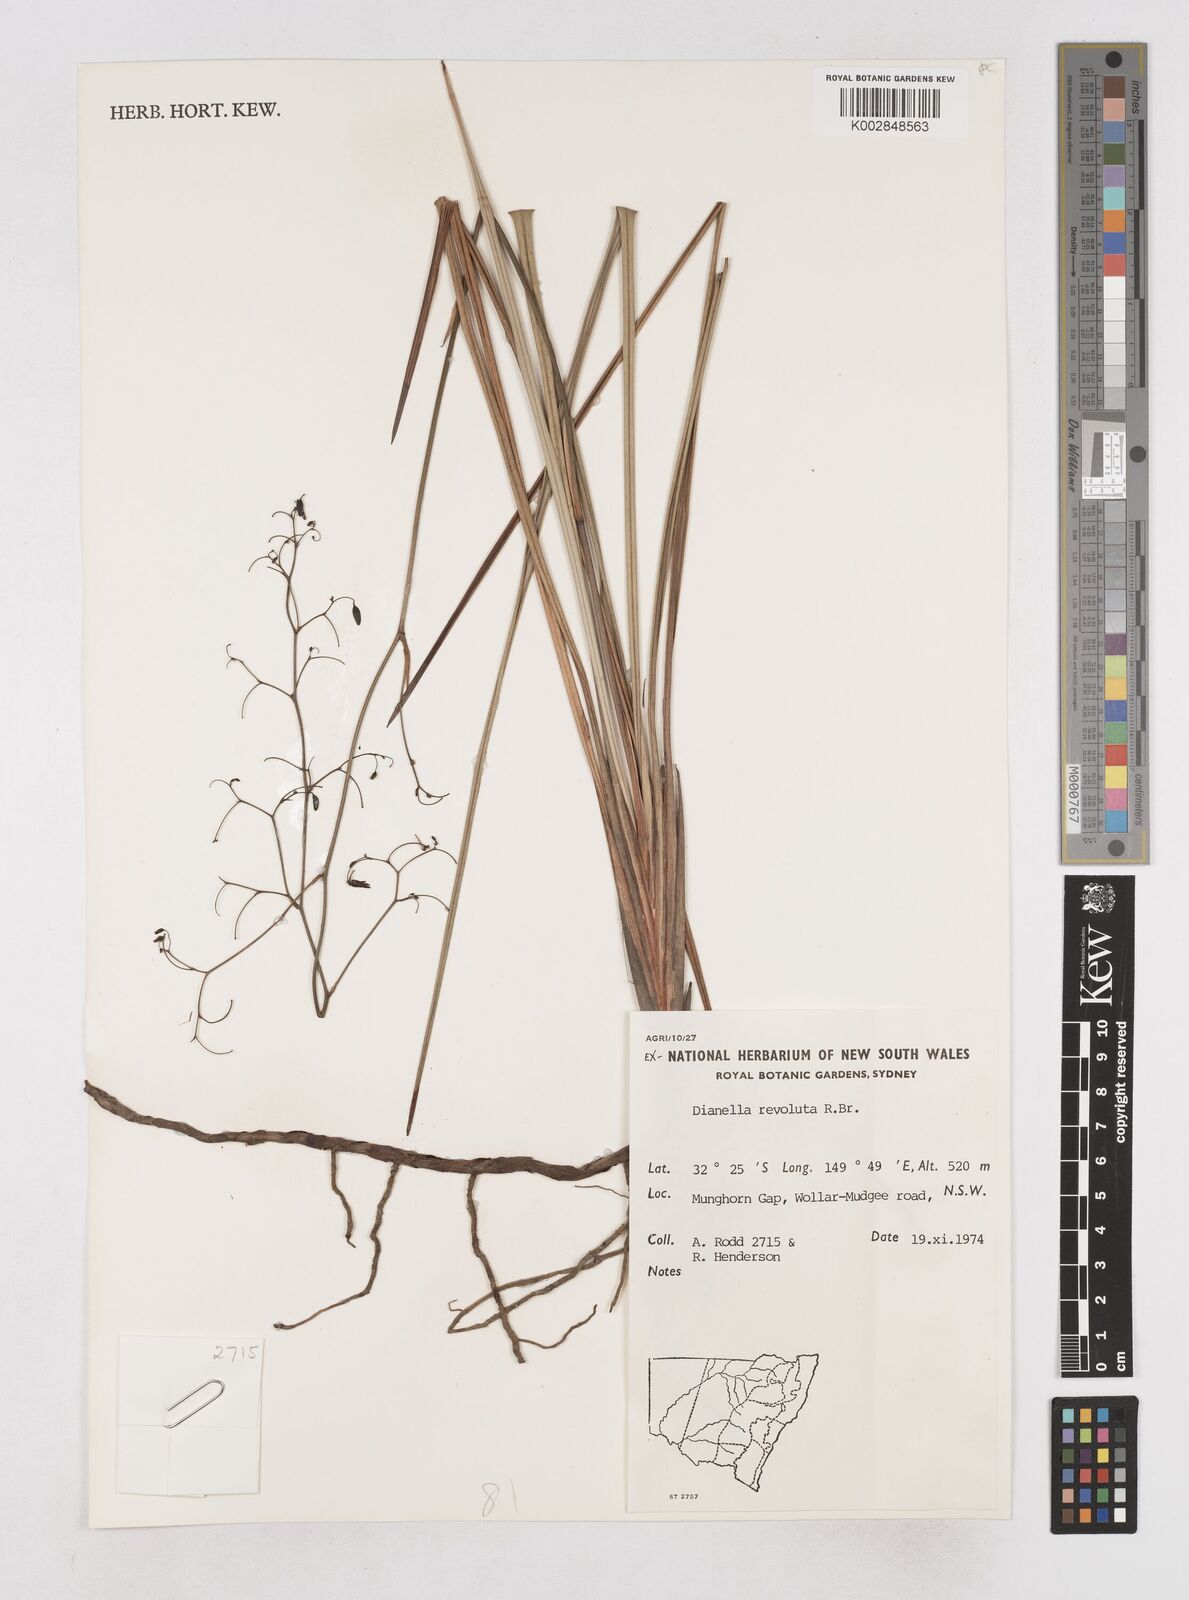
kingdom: Plantae
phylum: Tracheophyta
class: Liliopsida
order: Asparagales
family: Asphodelaceae
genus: Dianella
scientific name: Dianella revoluta
